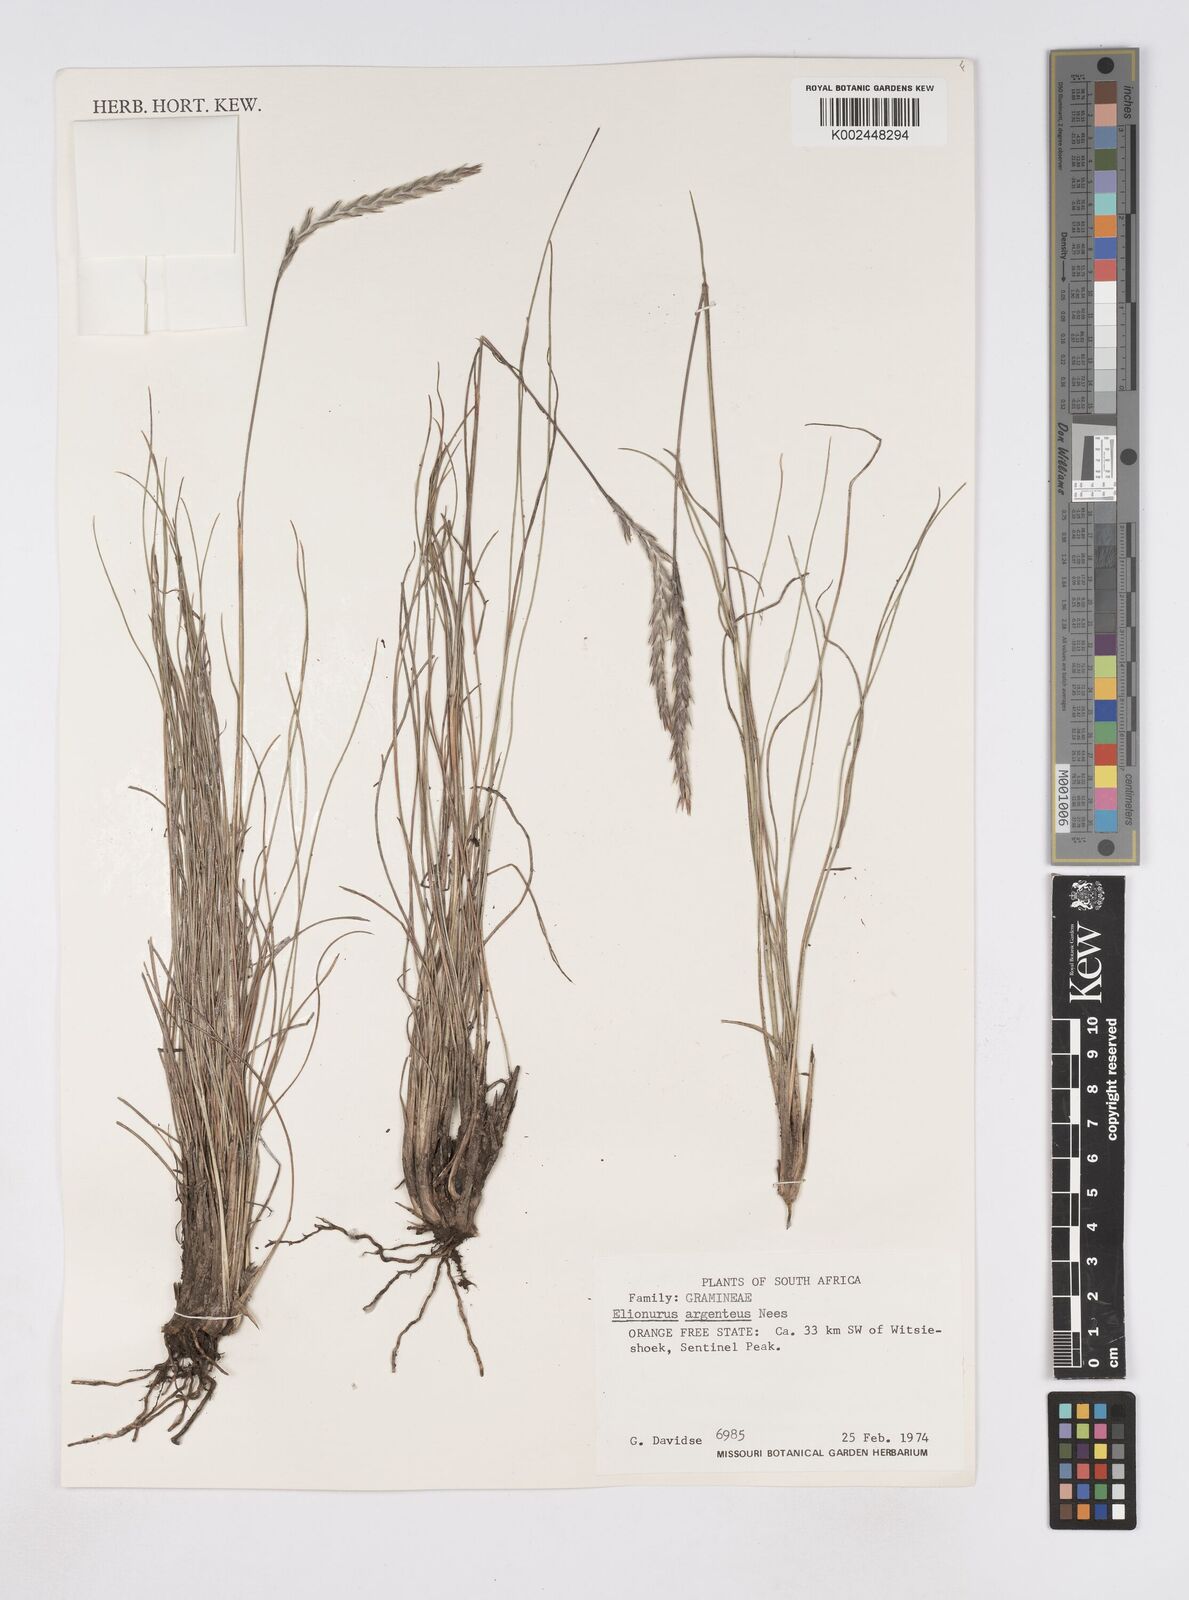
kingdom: Plantae
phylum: Tracheophyta
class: Liliopsida
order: Poales
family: Poaceae
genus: Elionurus
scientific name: Elionurus muticus
